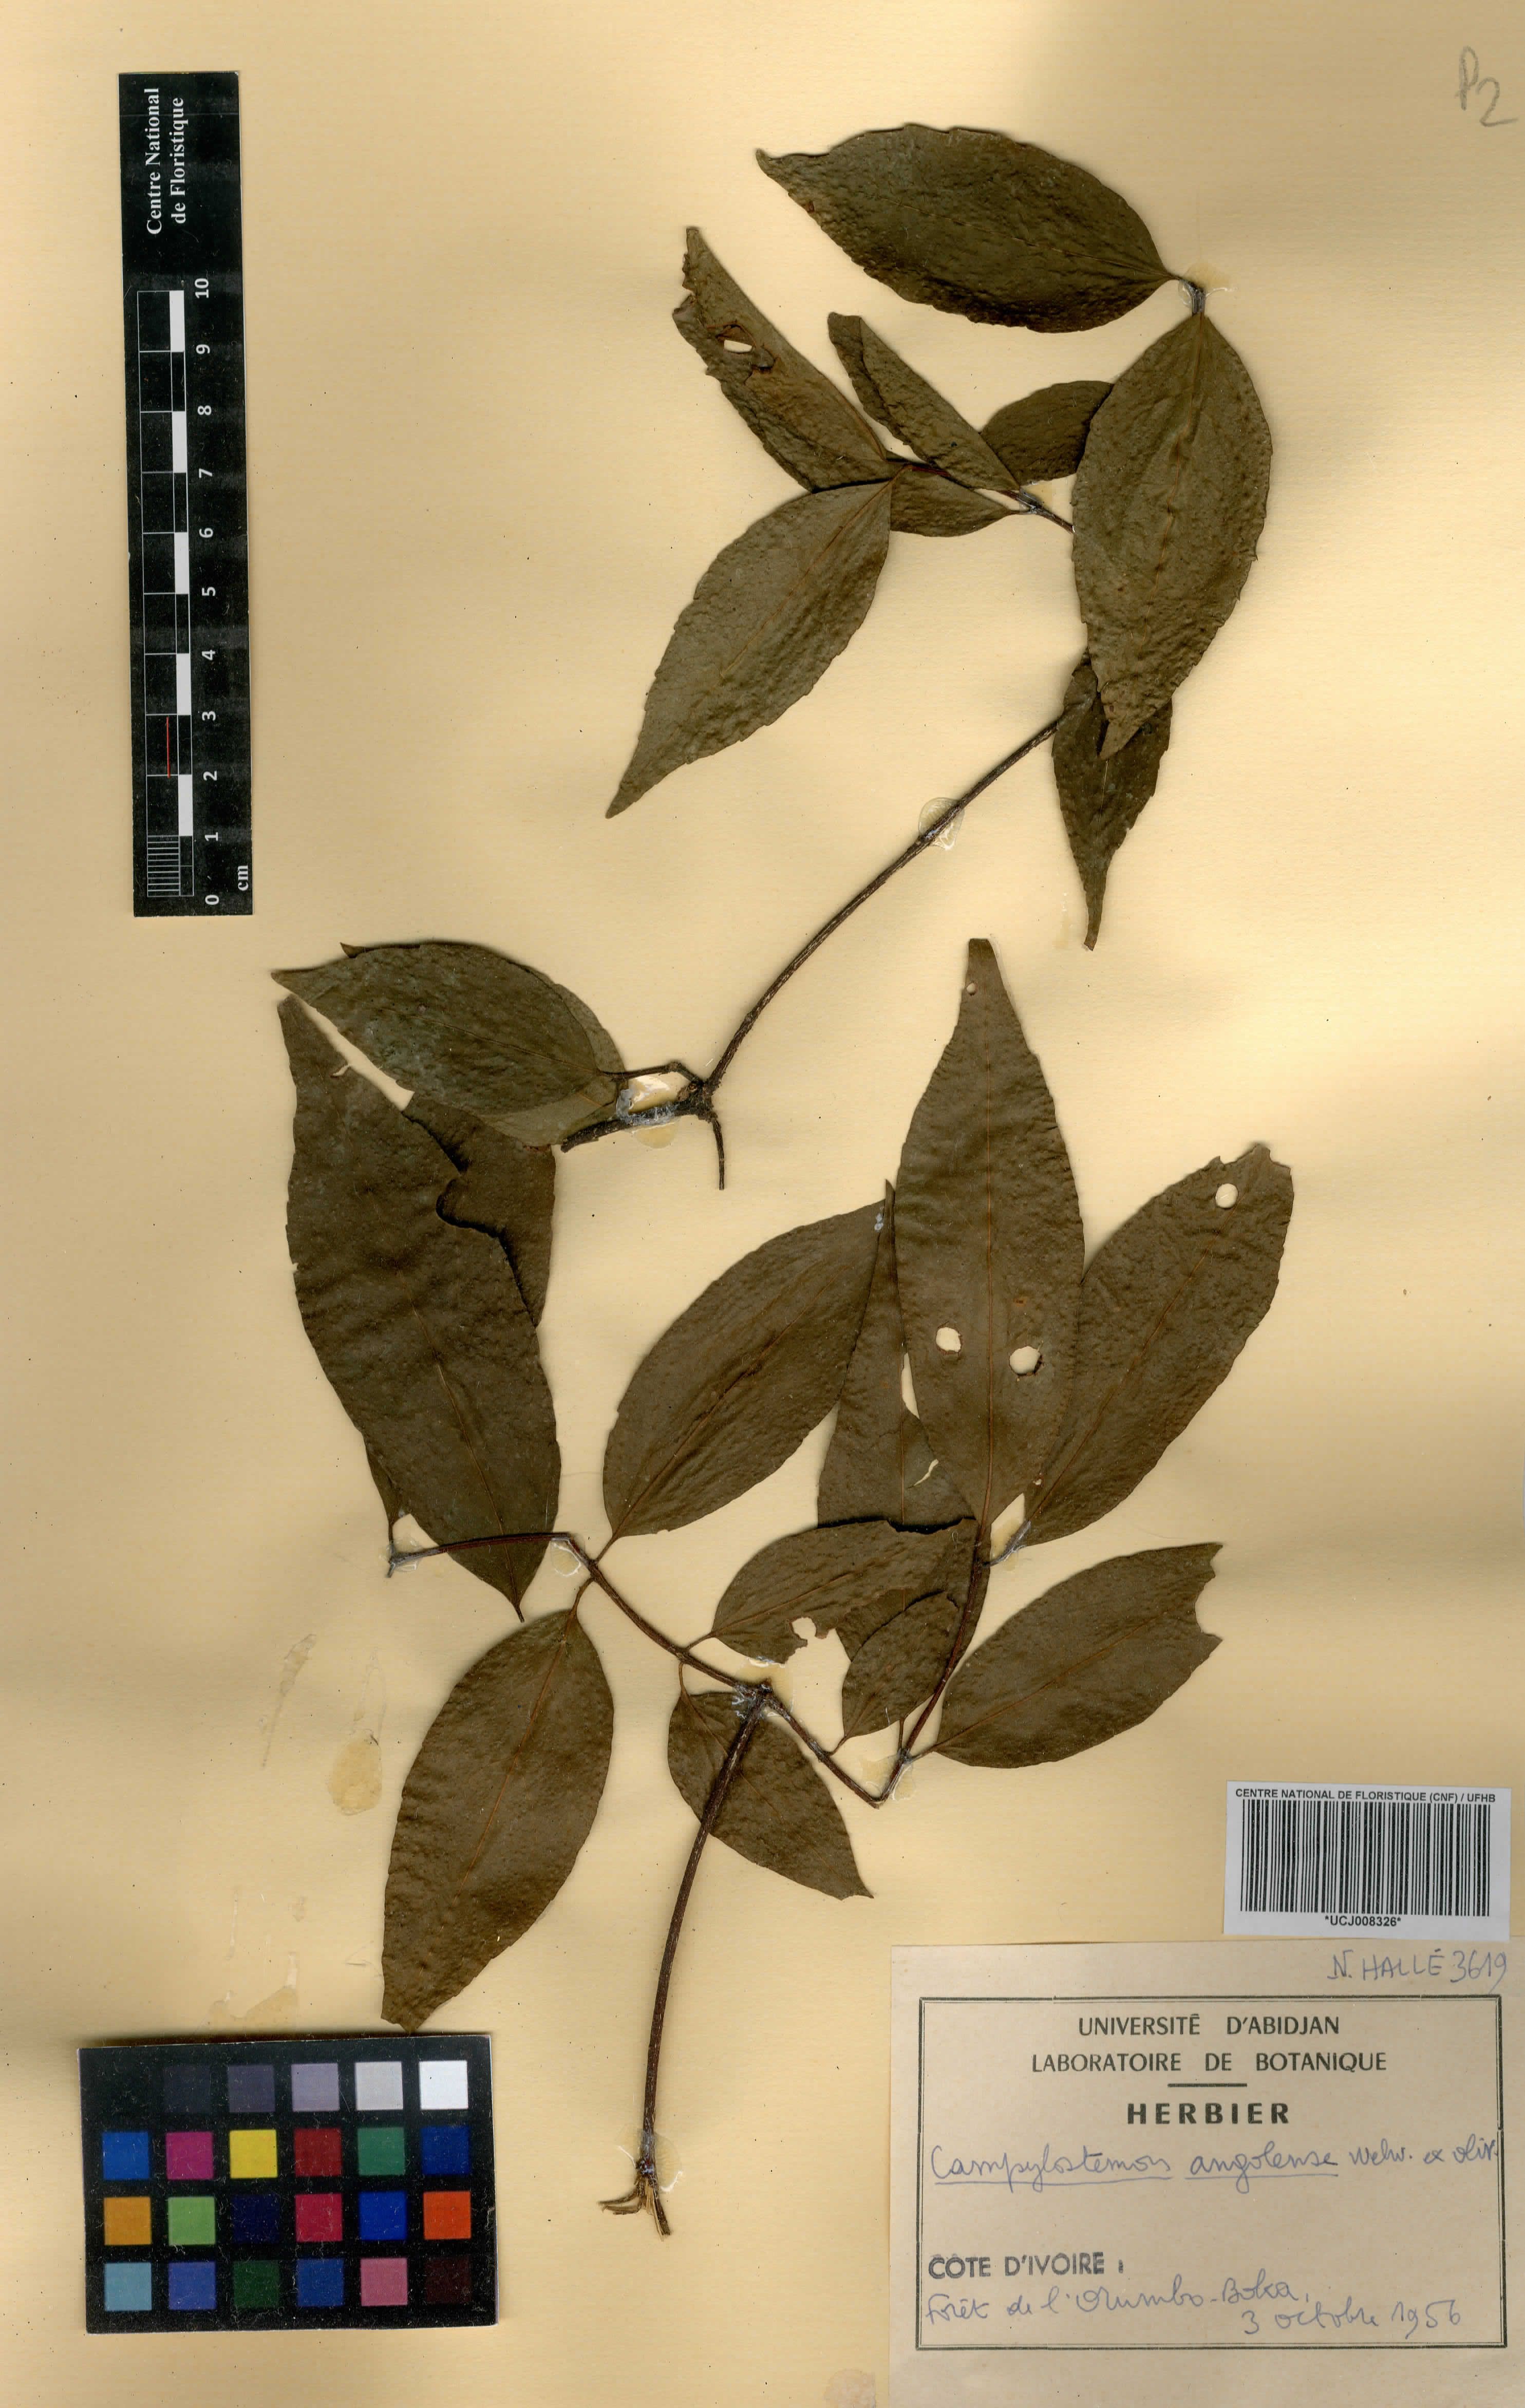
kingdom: Plantae
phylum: Tracheophyta
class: Magnoliopsida
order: Celastrales
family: Celastraceae
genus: Campylostemon
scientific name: Campylostemon angolense
